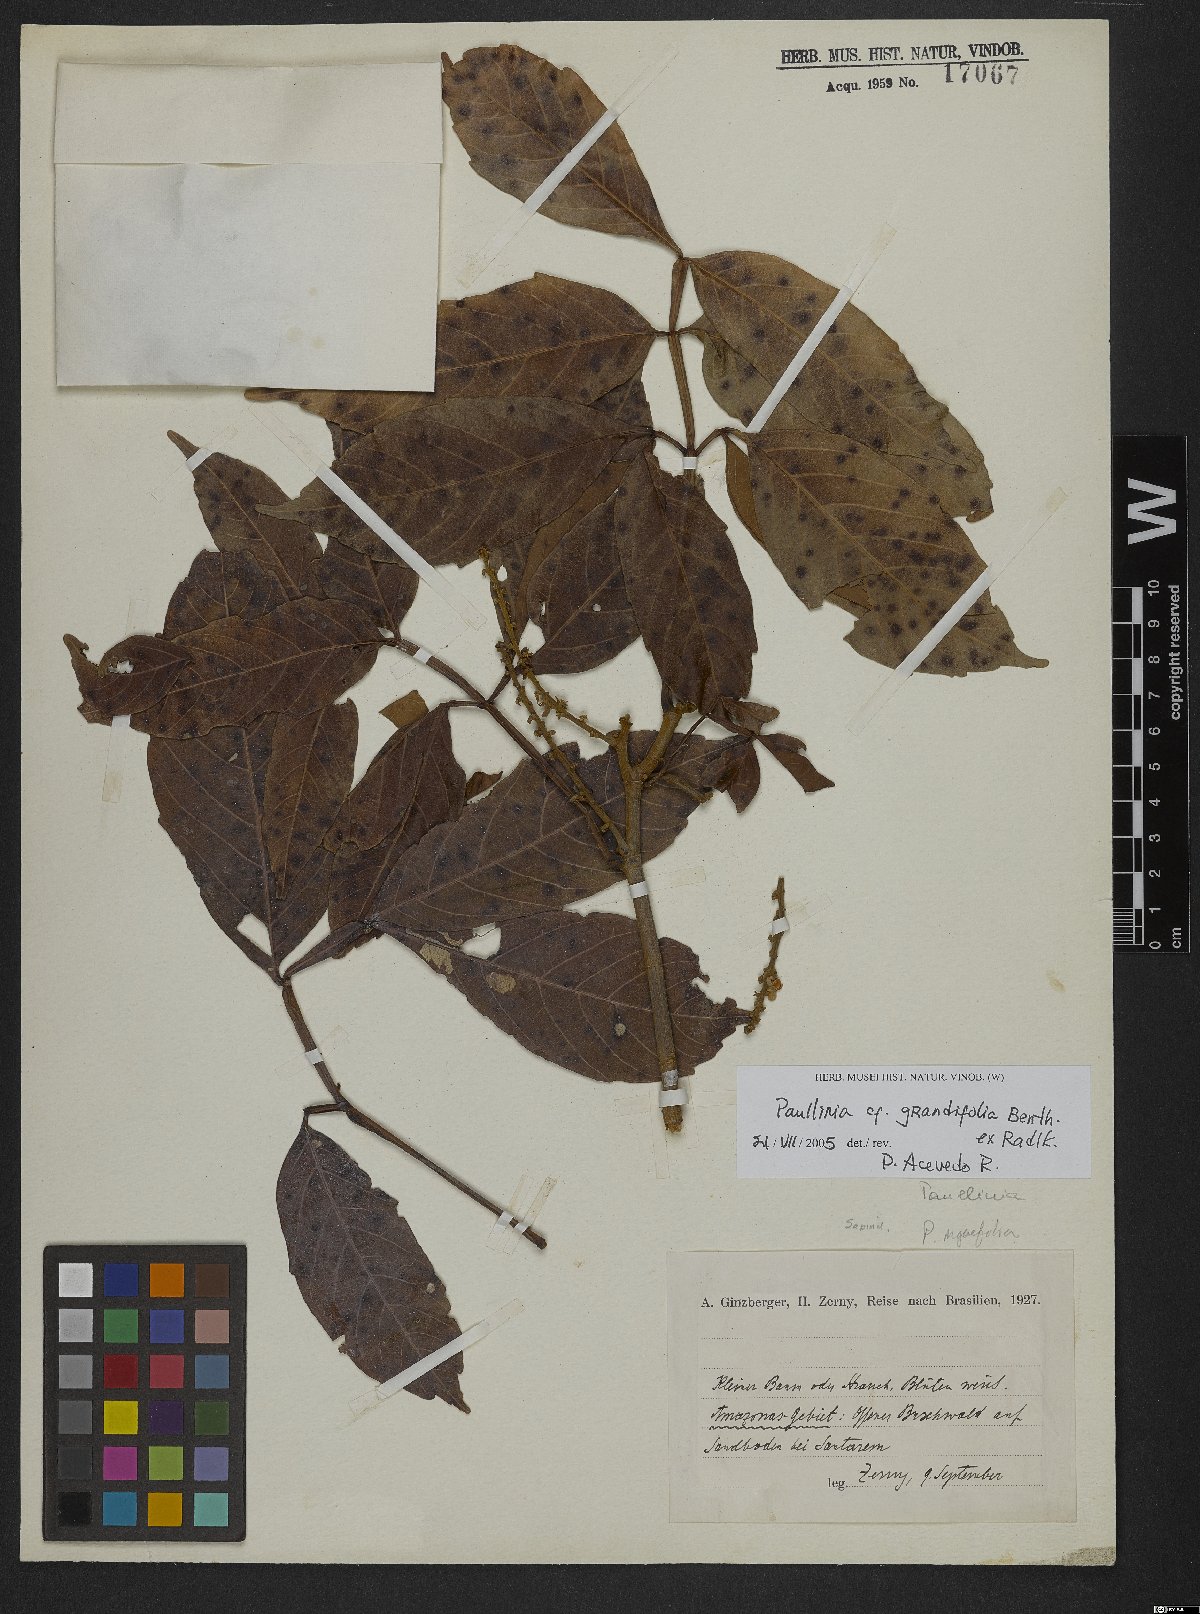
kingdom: Plantae
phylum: Tracheophyta
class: Magnoliopsida
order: Sapindales
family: Sapindaceae
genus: Paullinia
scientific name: Paullinia ingifolia
